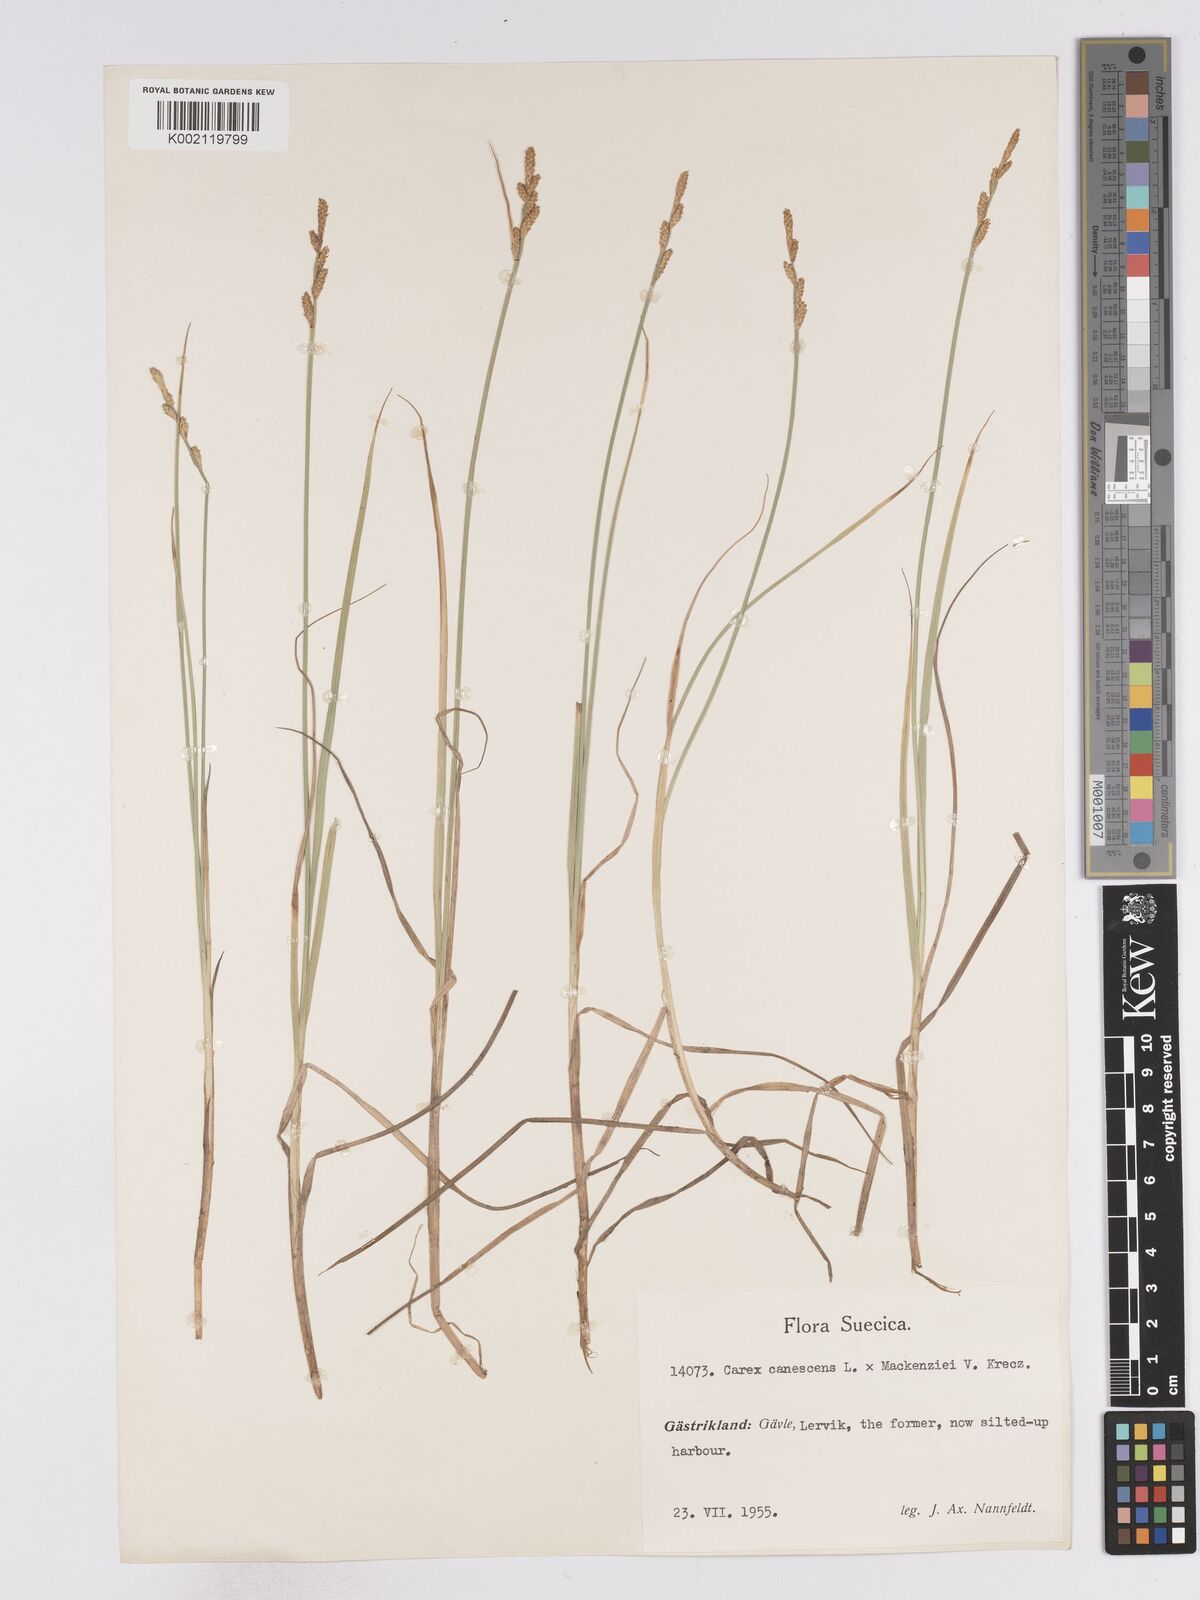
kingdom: Plantae
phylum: Tracheophyta
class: Liliopsida
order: Poales
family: Cyperaceae
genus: Carex
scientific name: Carex curta
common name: White sedge
